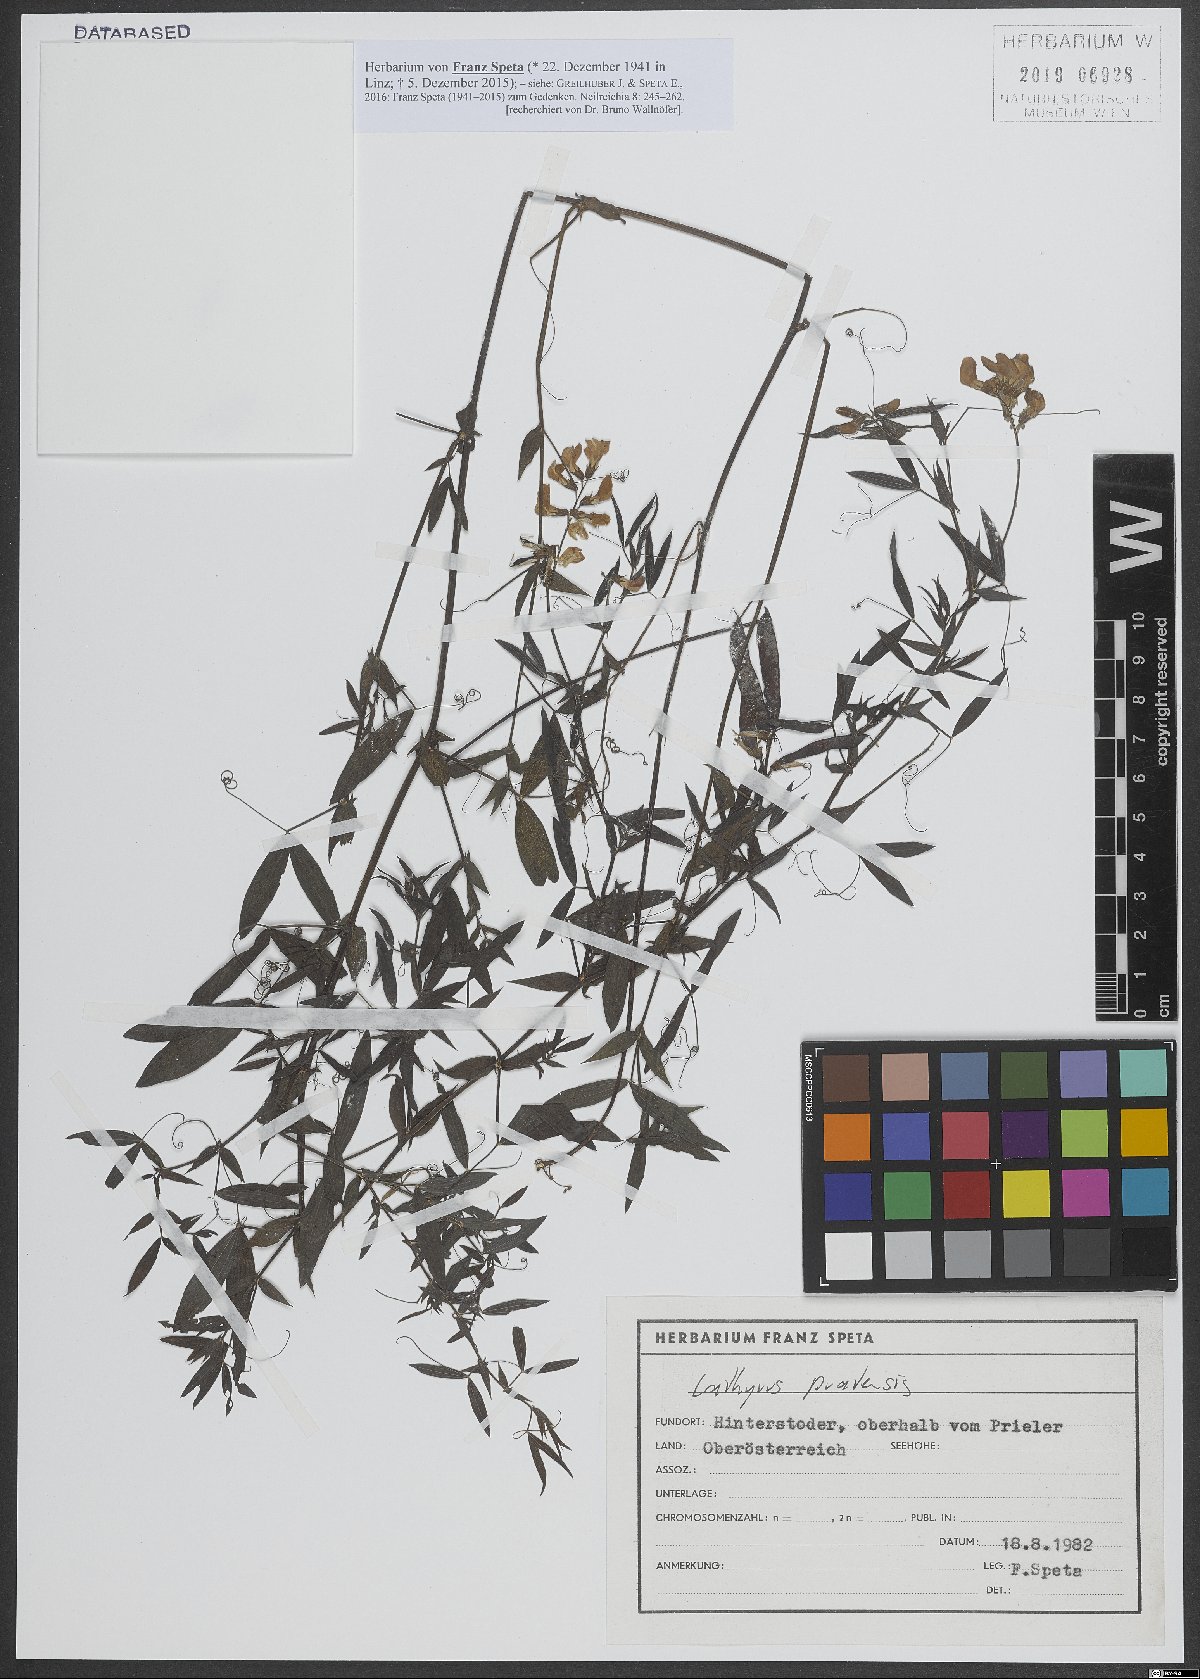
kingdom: Plantae
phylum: Tracheophyta
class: Magnoliopsida
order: Fabales
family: Fabaceae
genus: Lathyrus
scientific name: Lathyrus pratensis
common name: Meadow vetchling
